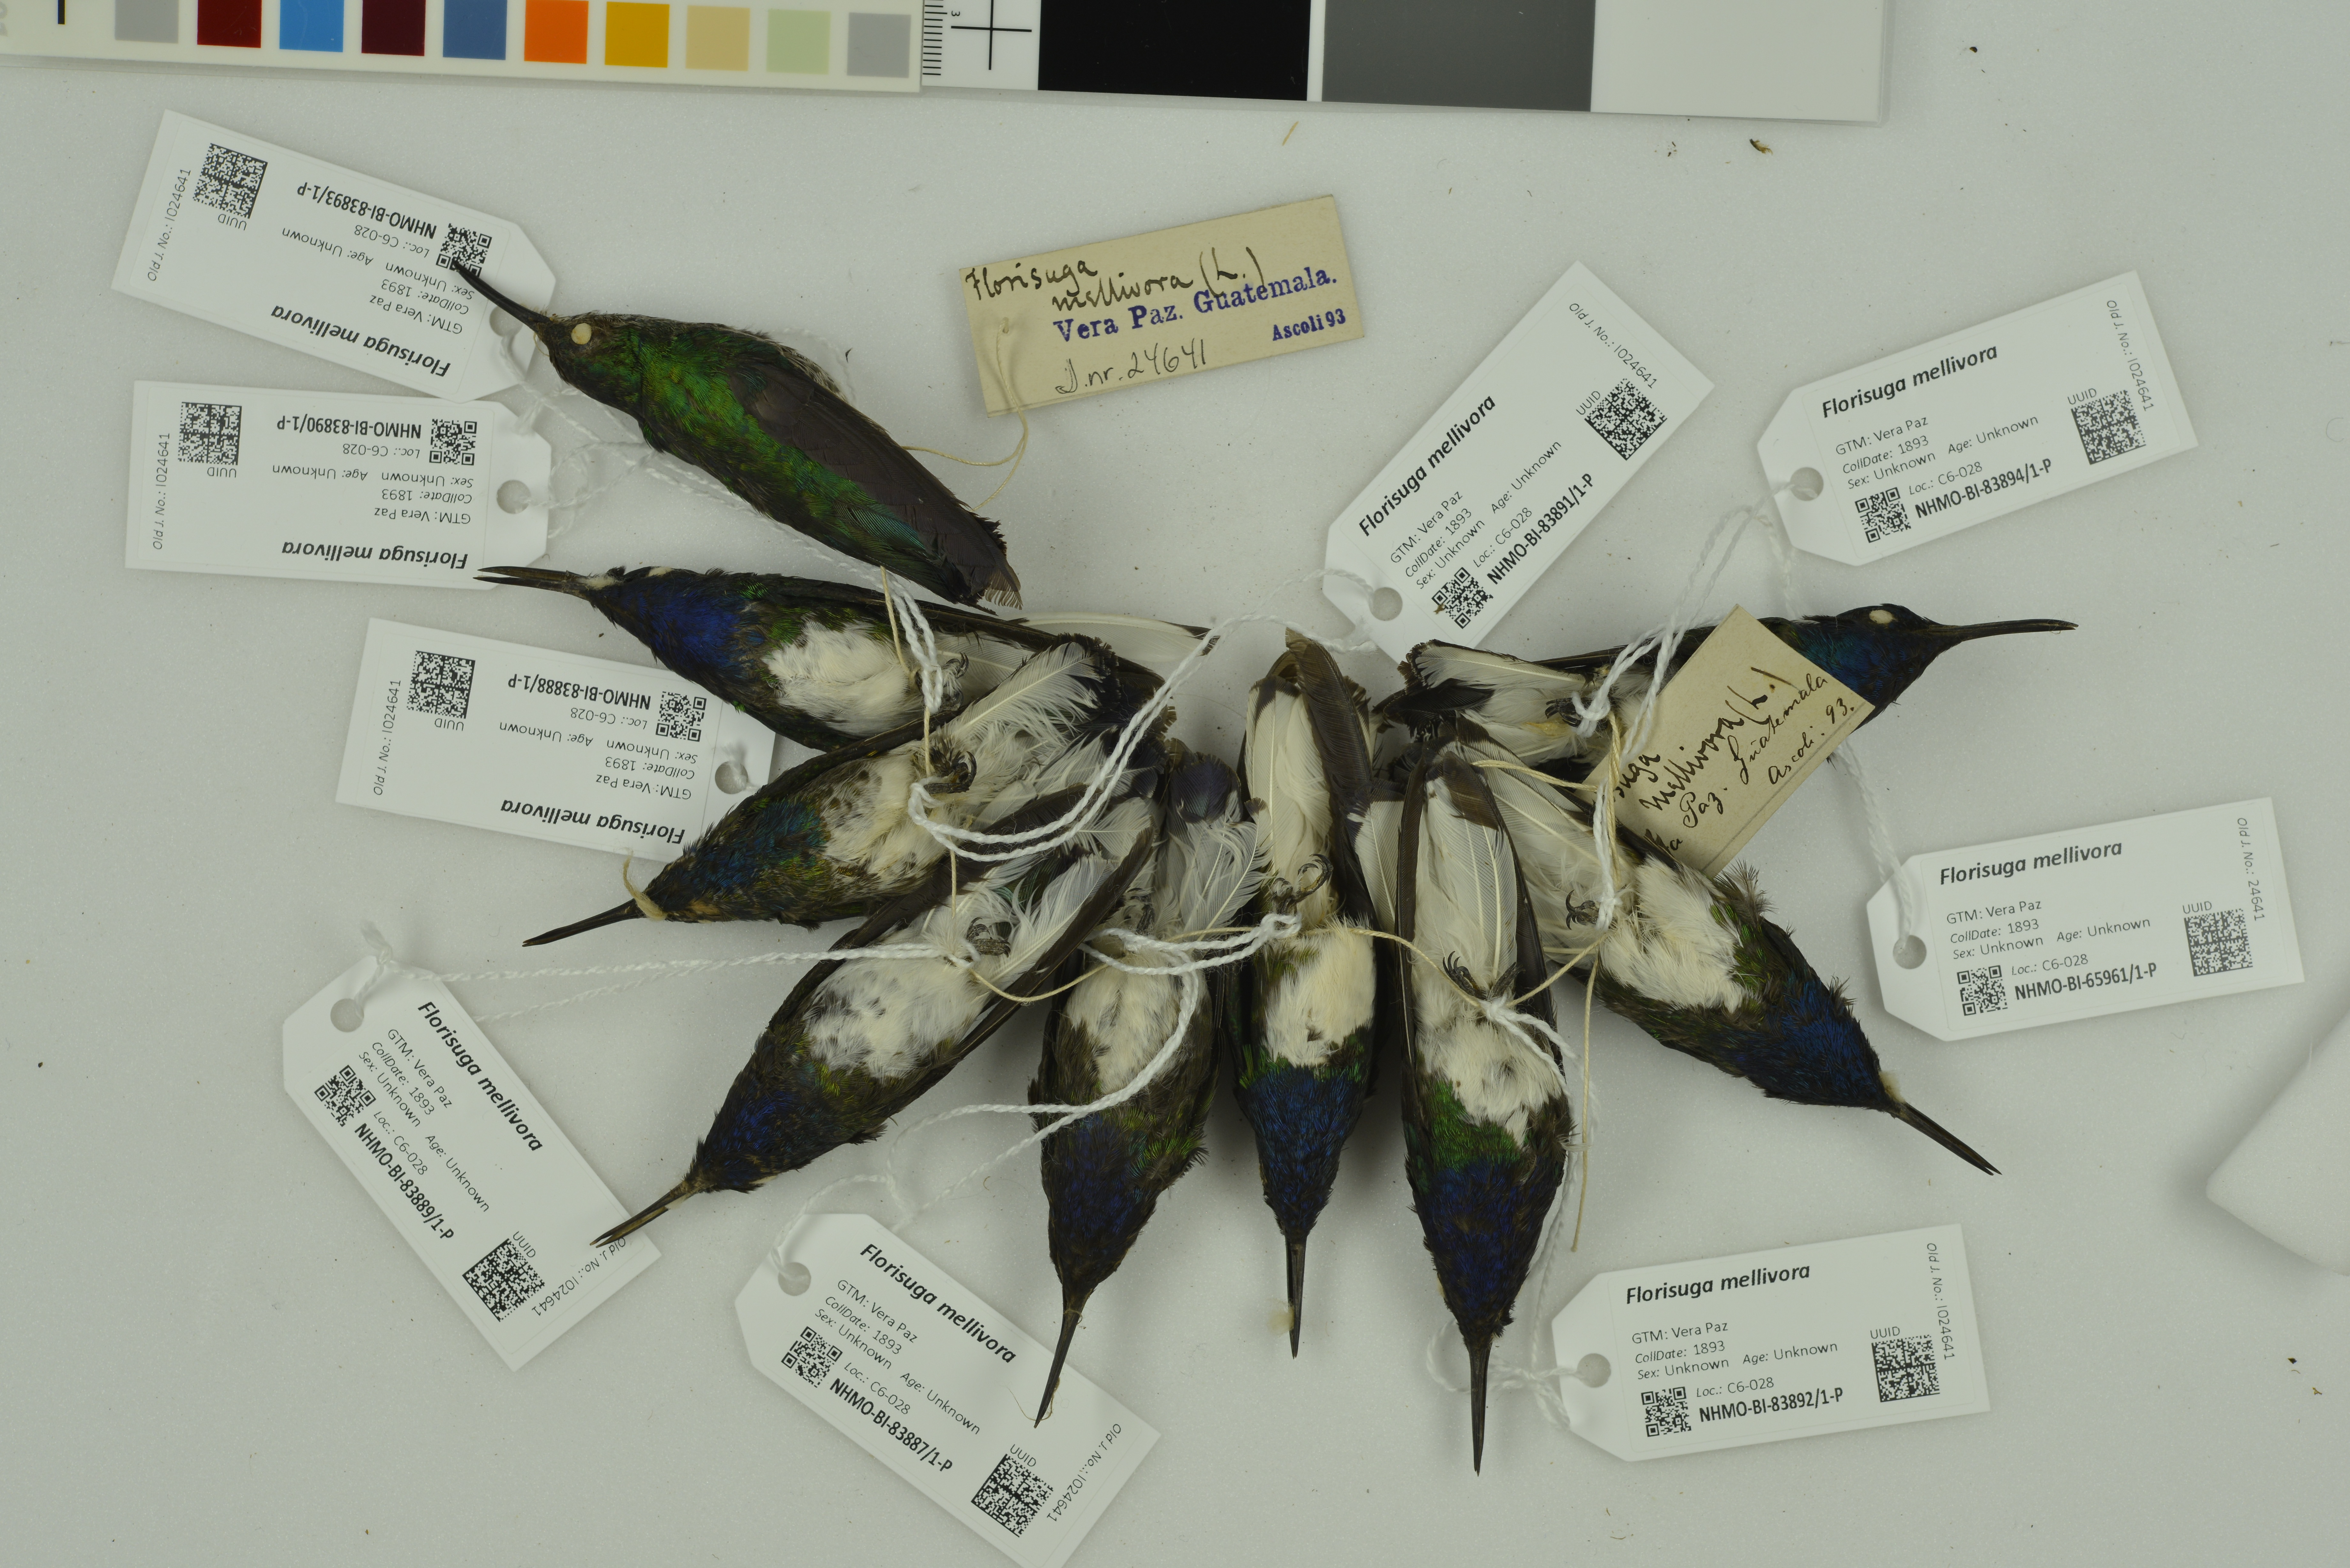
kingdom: Animalia
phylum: Chordata
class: Aves
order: Apodiformes
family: Trochilidae
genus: Florisuga
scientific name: Florisuga mellivora
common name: White-necked jacobin
